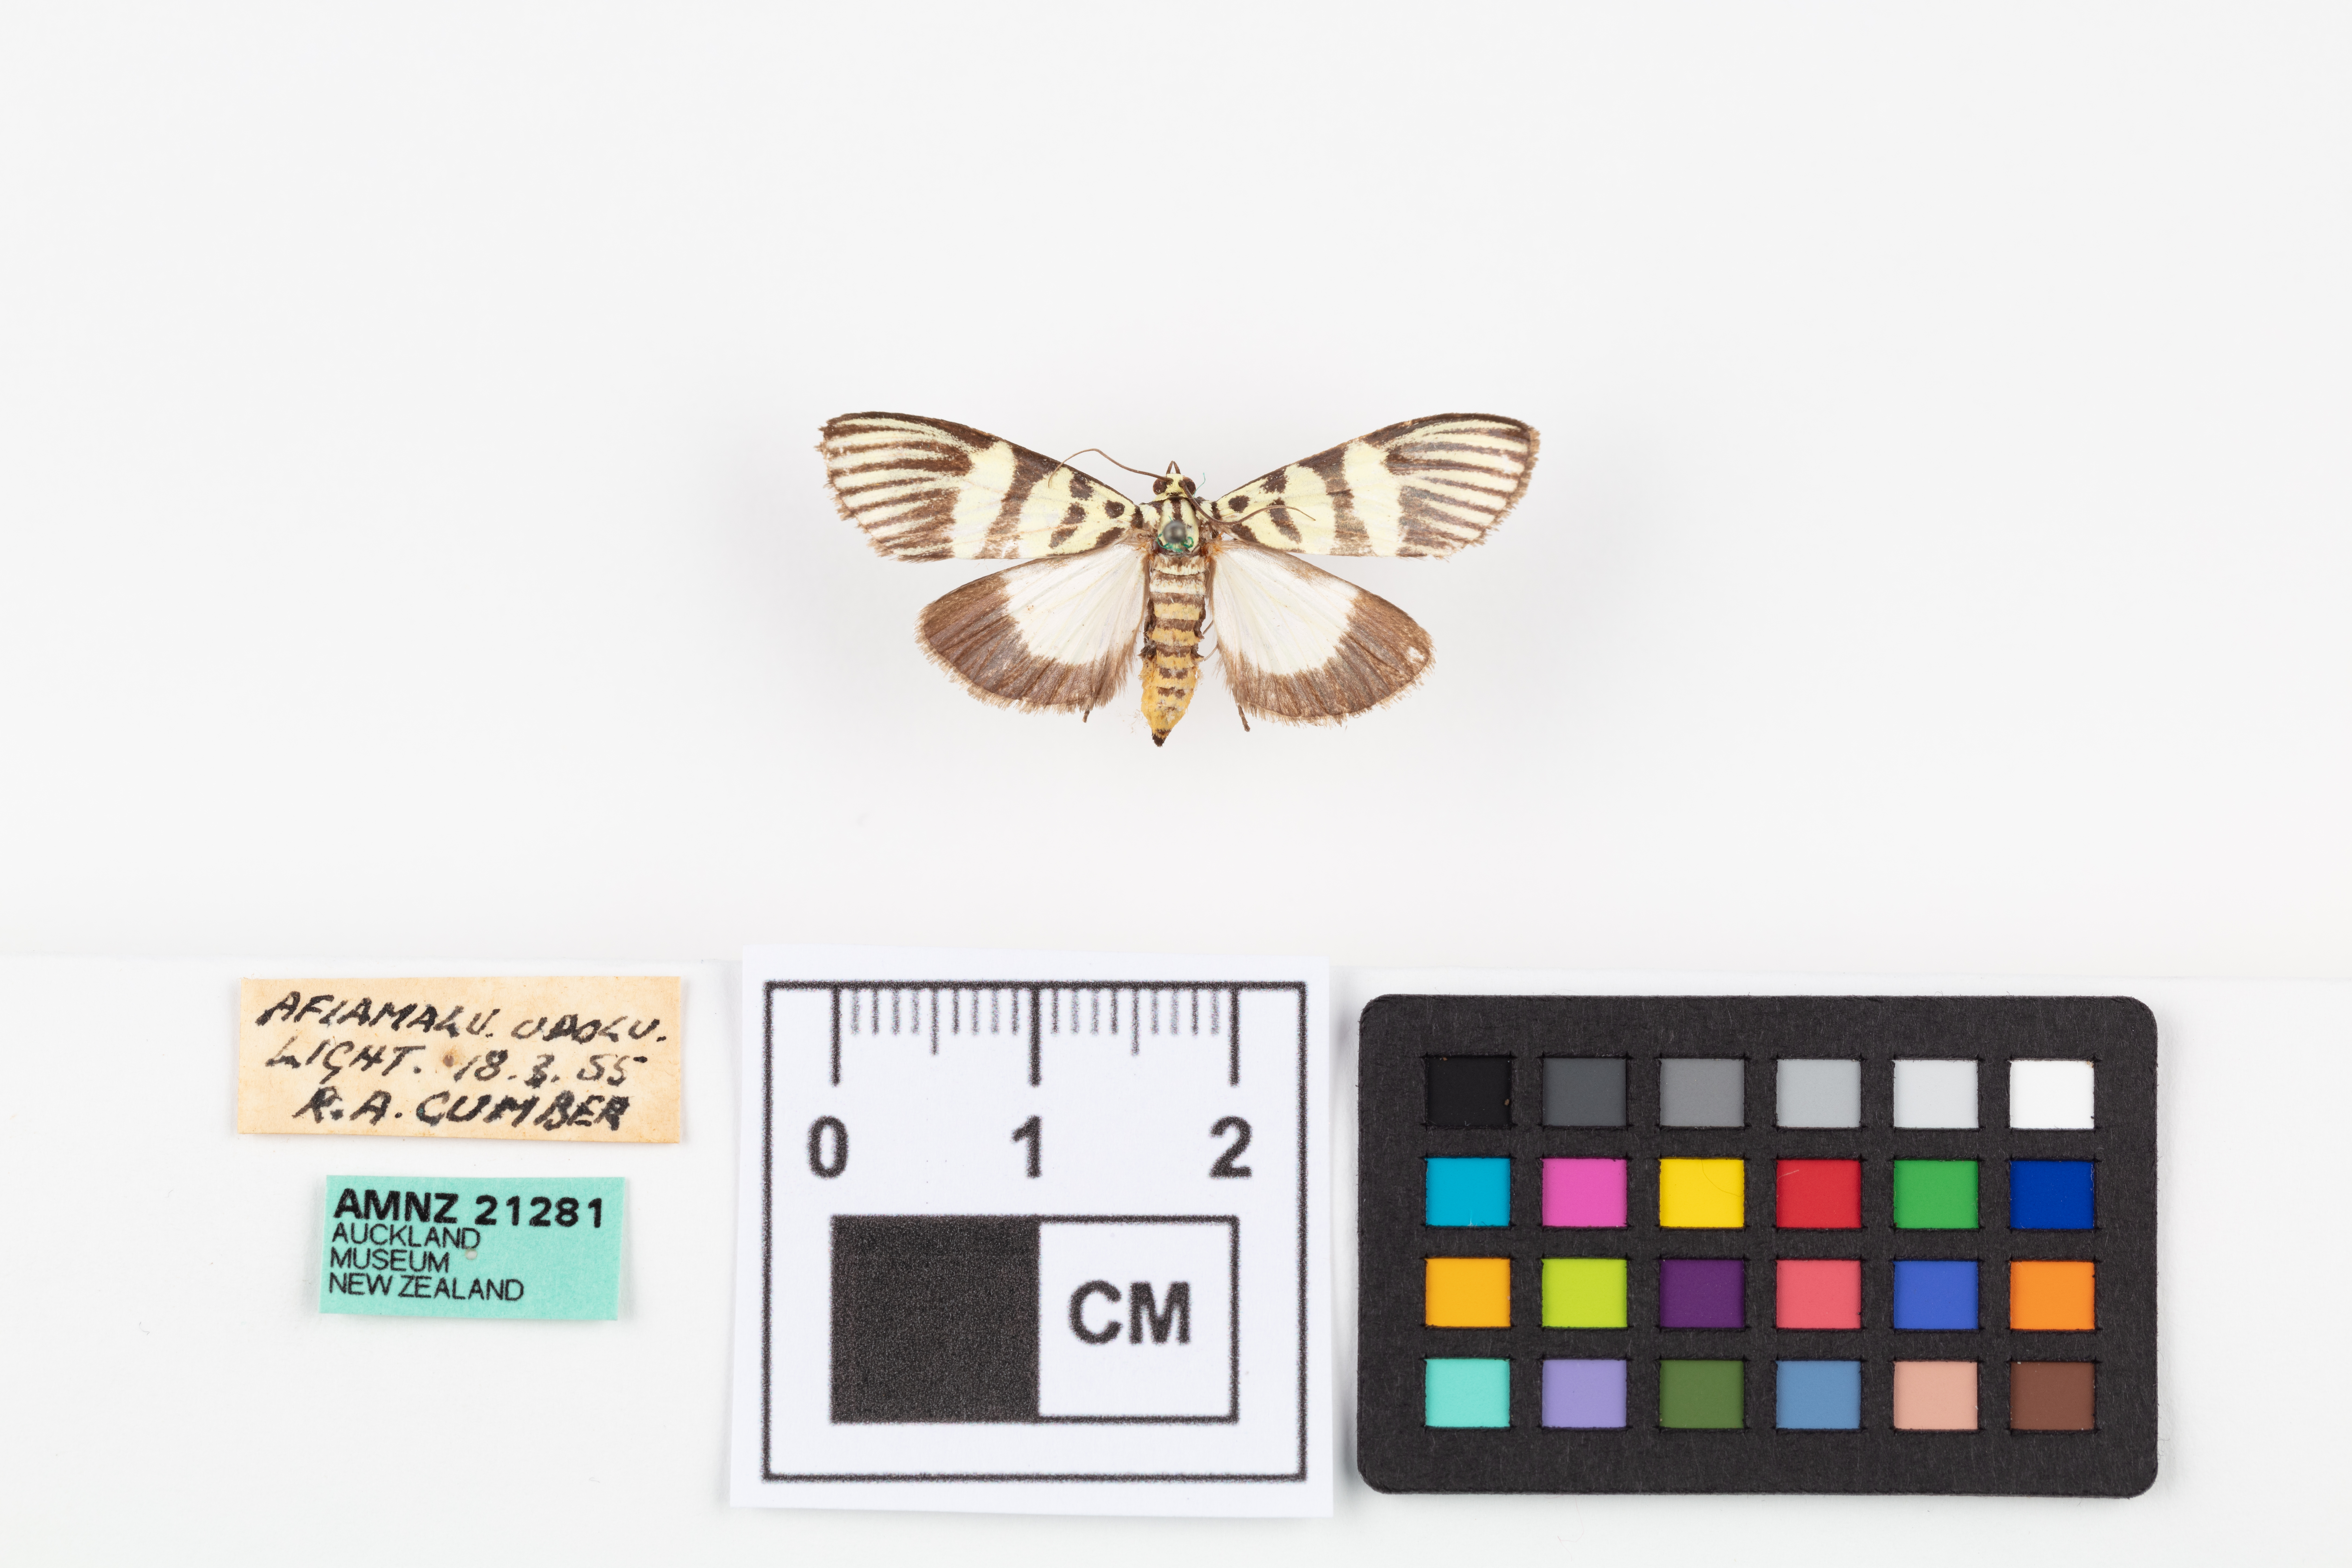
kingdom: Animalia
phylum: Arthropoda
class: Insecta
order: Lepidoptera
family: Crambidae
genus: Heortia
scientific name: Heortia vitessoides
